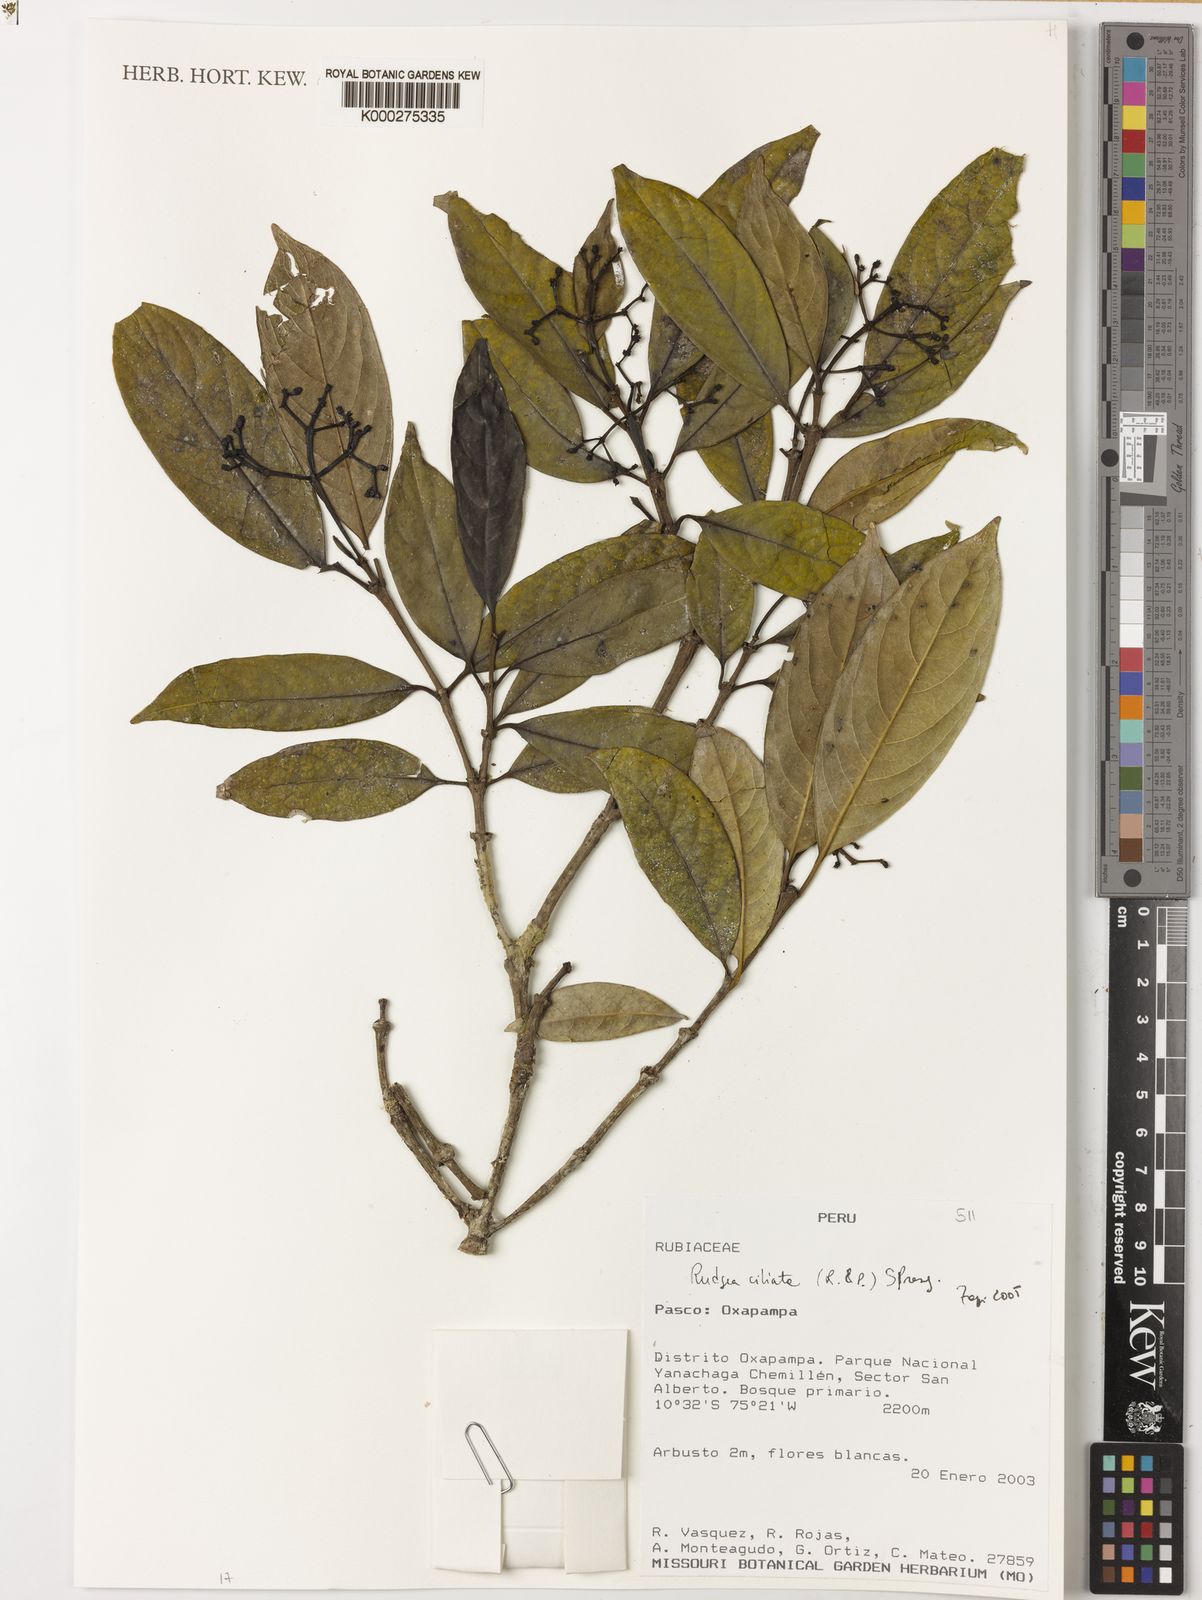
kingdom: Plantae
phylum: Tracheophyta
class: Magnoliopsida
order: Gentianales
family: Rubiaceae
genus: Rudgea
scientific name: Rudgea ciliata
